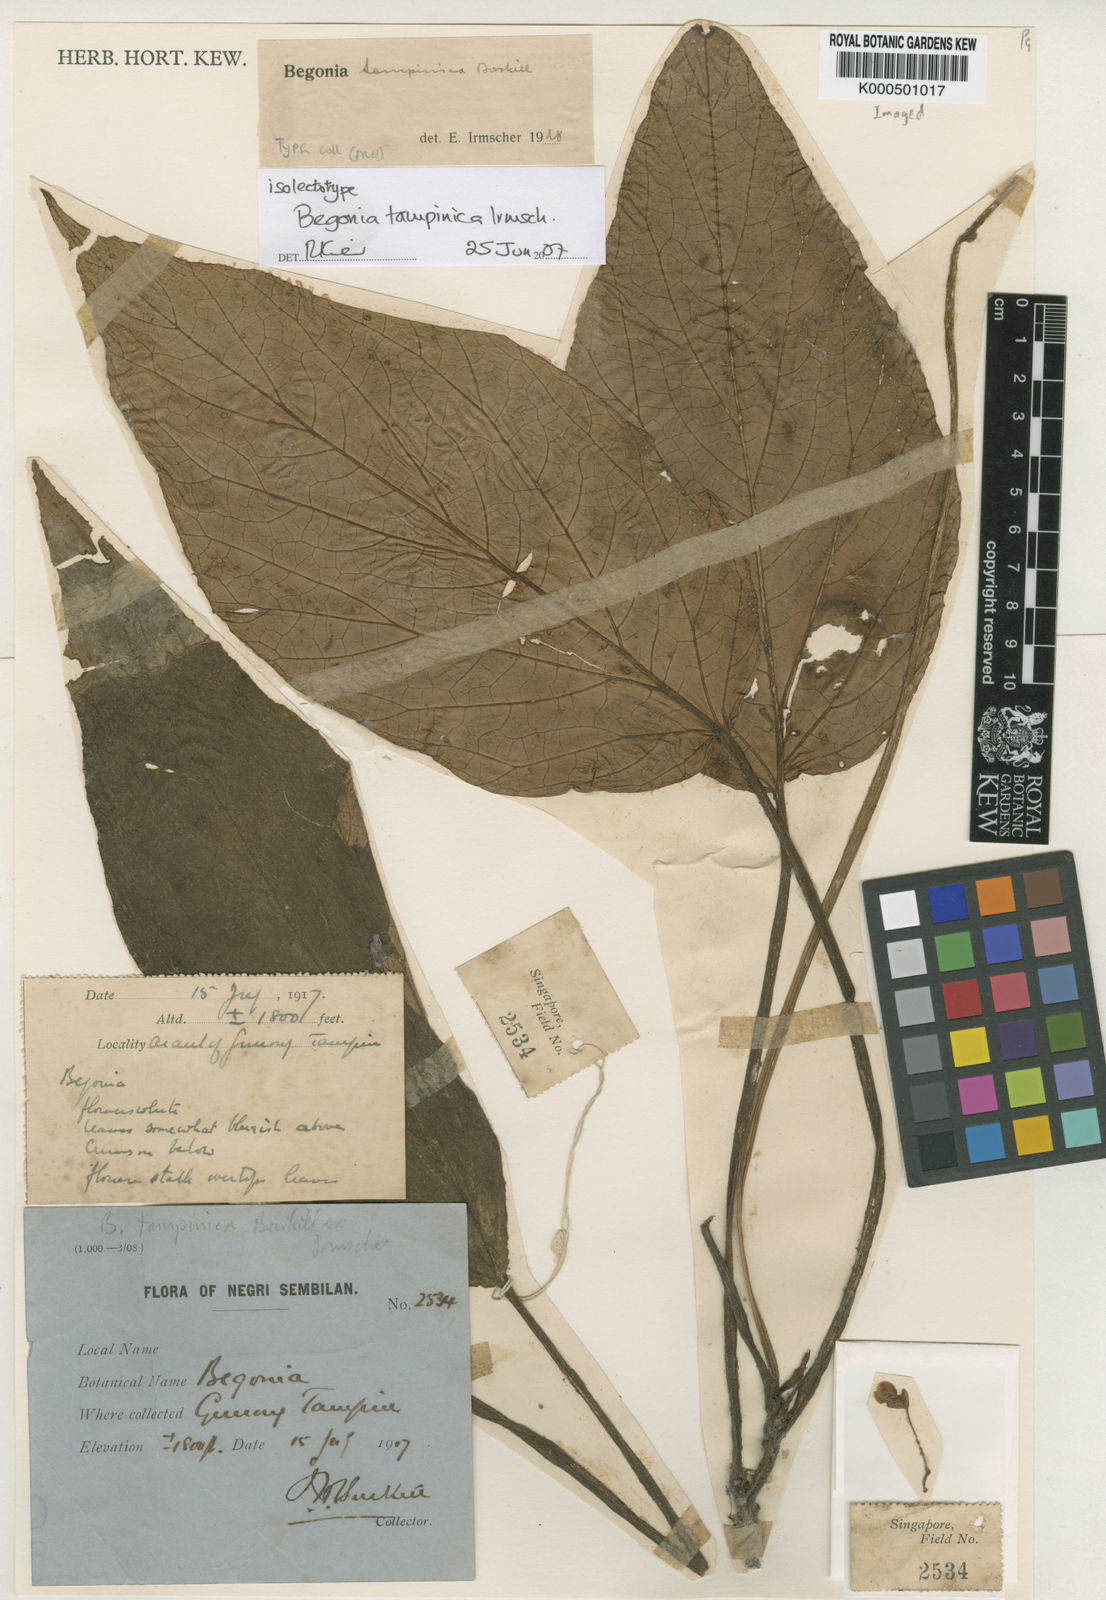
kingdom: Plantae
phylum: Tracheophyta
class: Magnoliopsida
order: Cucurbitales
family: Begoniaceae
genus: Begonia
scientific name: Begonia tampinica
